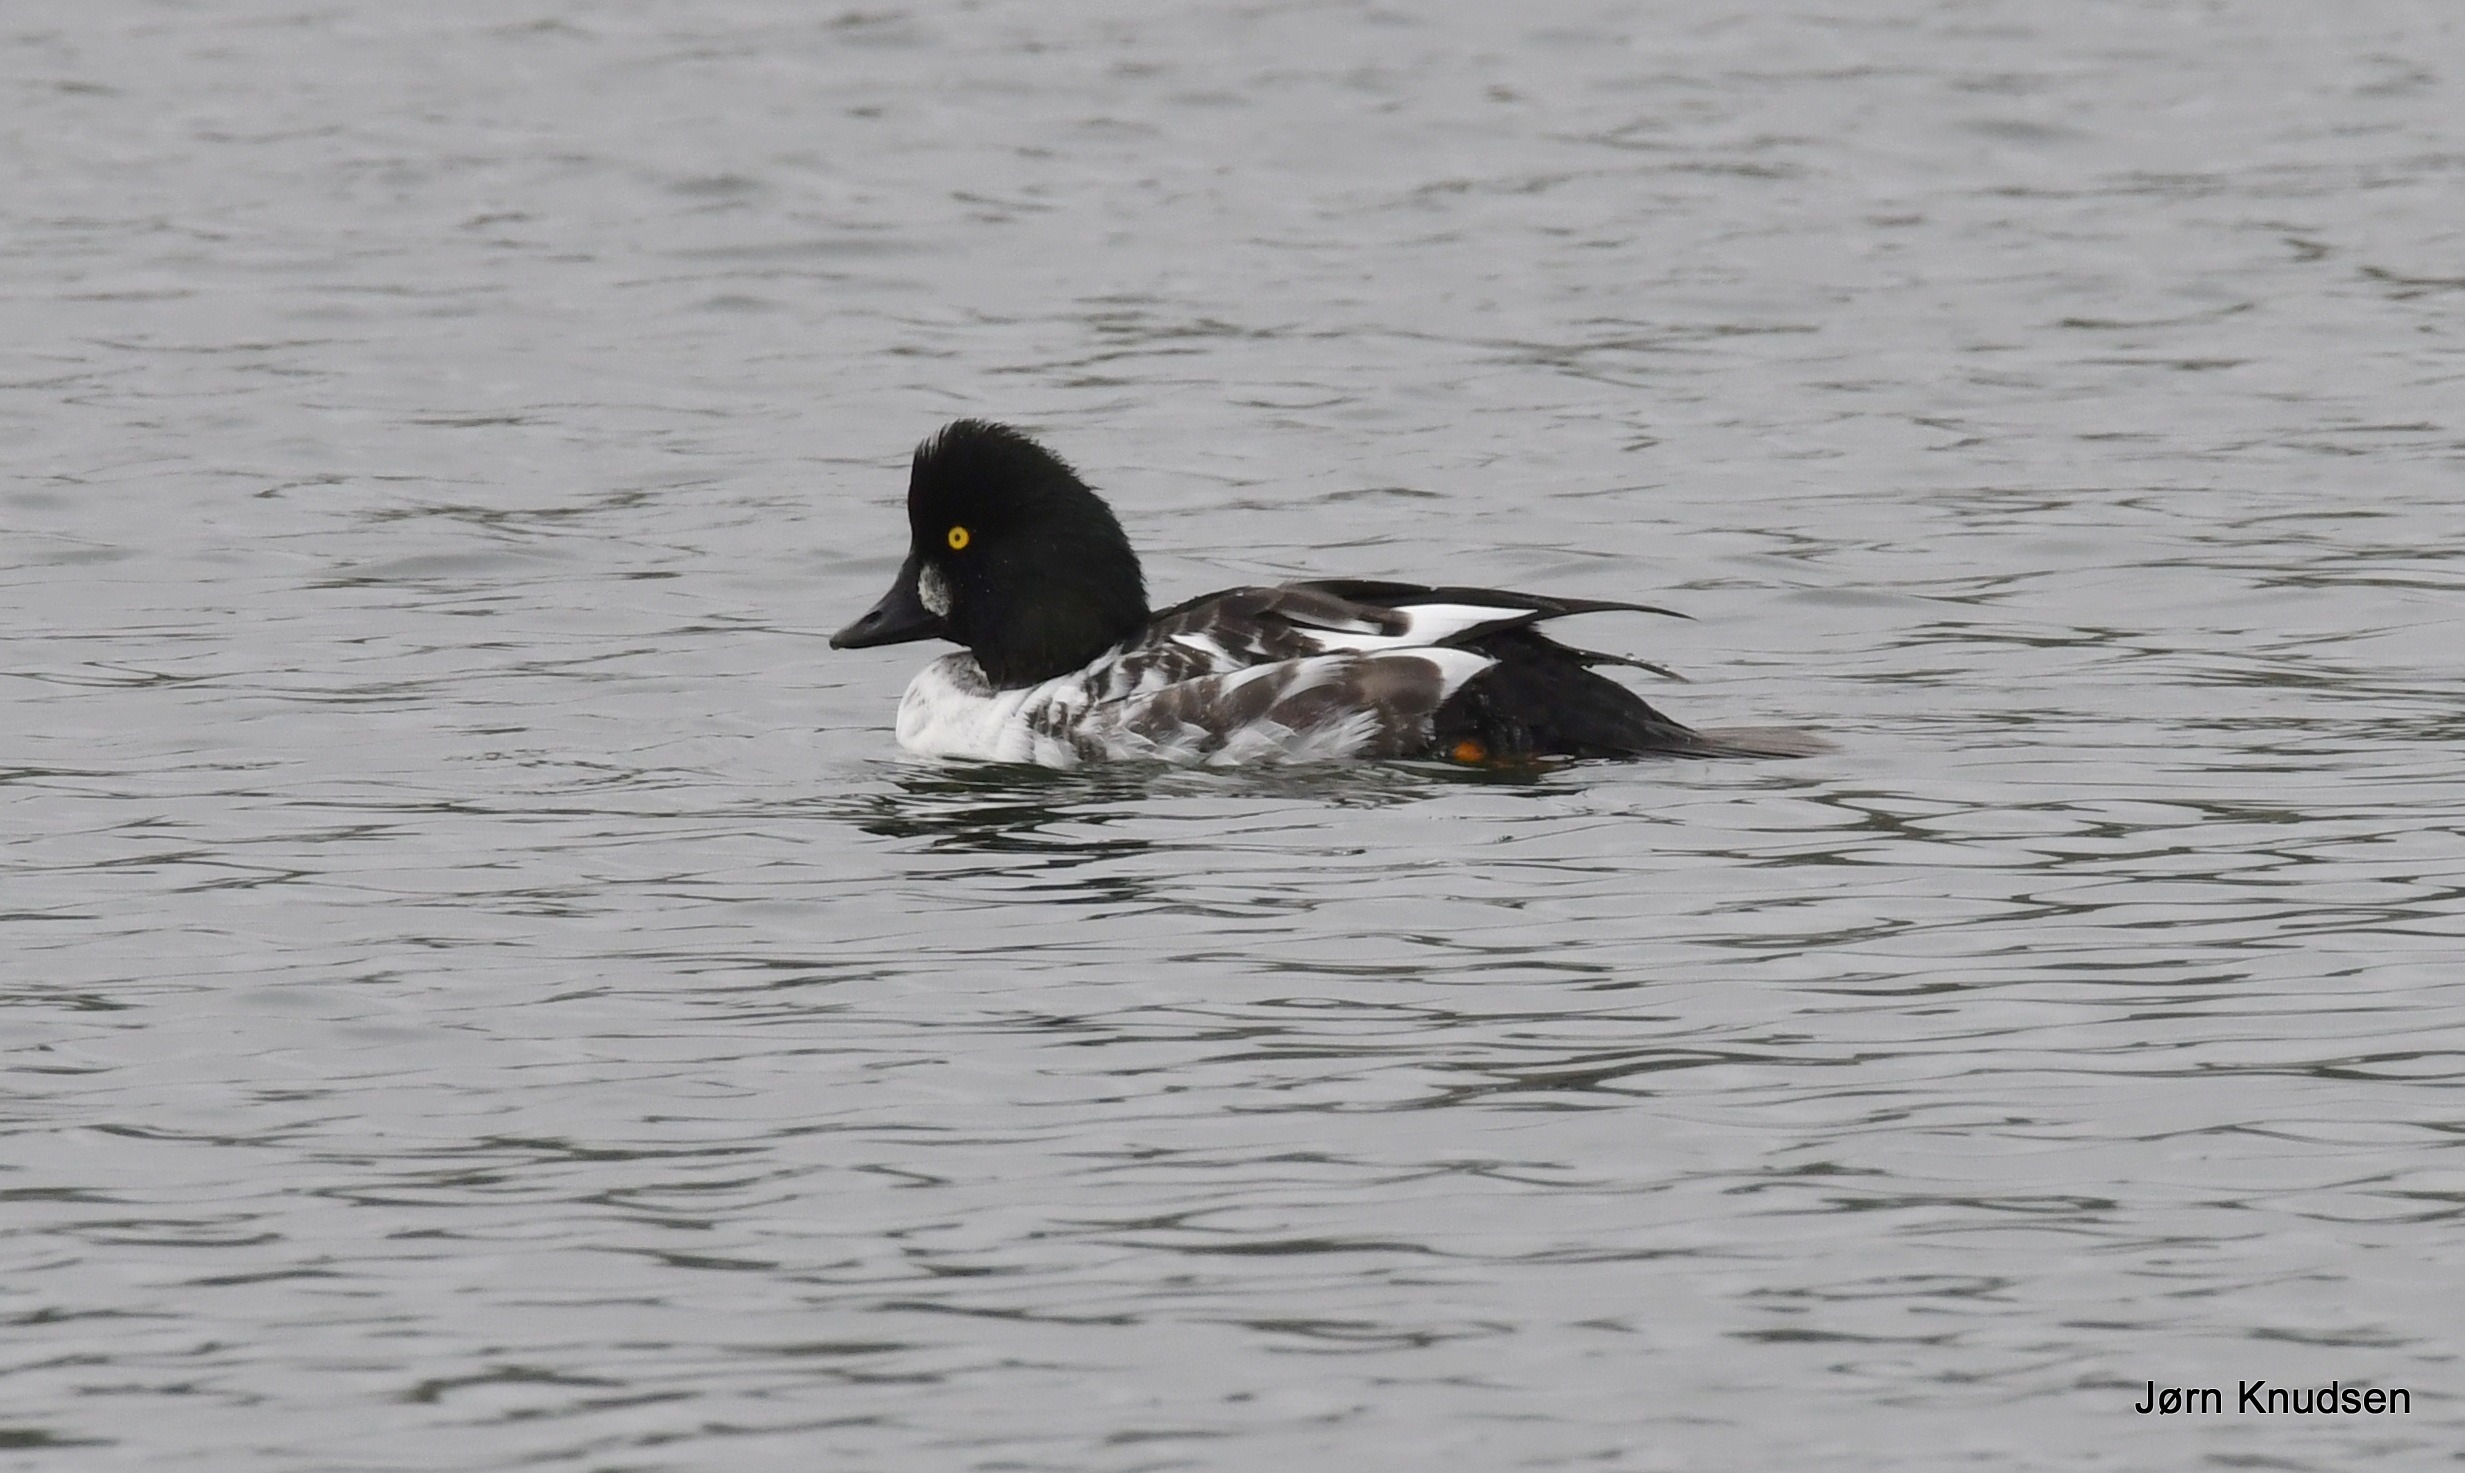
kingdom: Animalia
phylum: Chordata
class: Aves
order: Anseriformes
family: Anatidae
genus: Bucephala
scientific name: Bucephala clangula
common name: Hvinand
